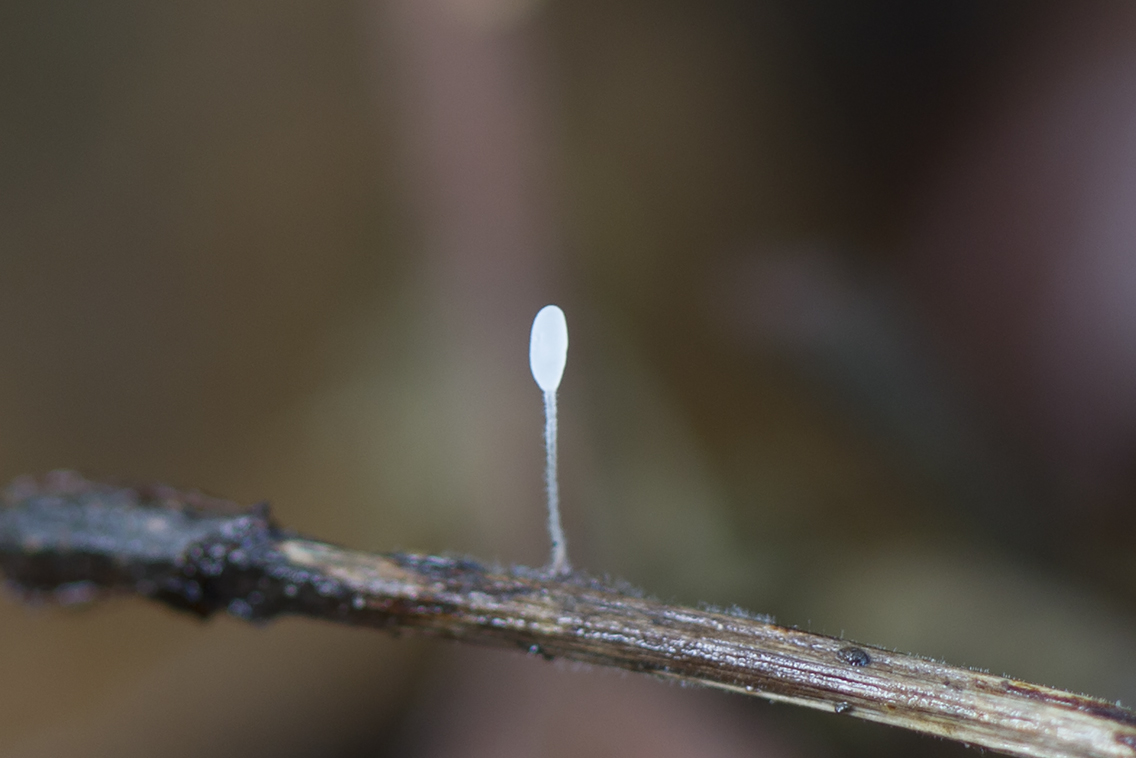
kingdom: Fungi
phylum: Basidiomycota
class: Agaricomycetes
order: Agaricales
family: Typhulaceae
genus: Typhula
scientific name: Typhula setipes
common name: liden trådkølle
